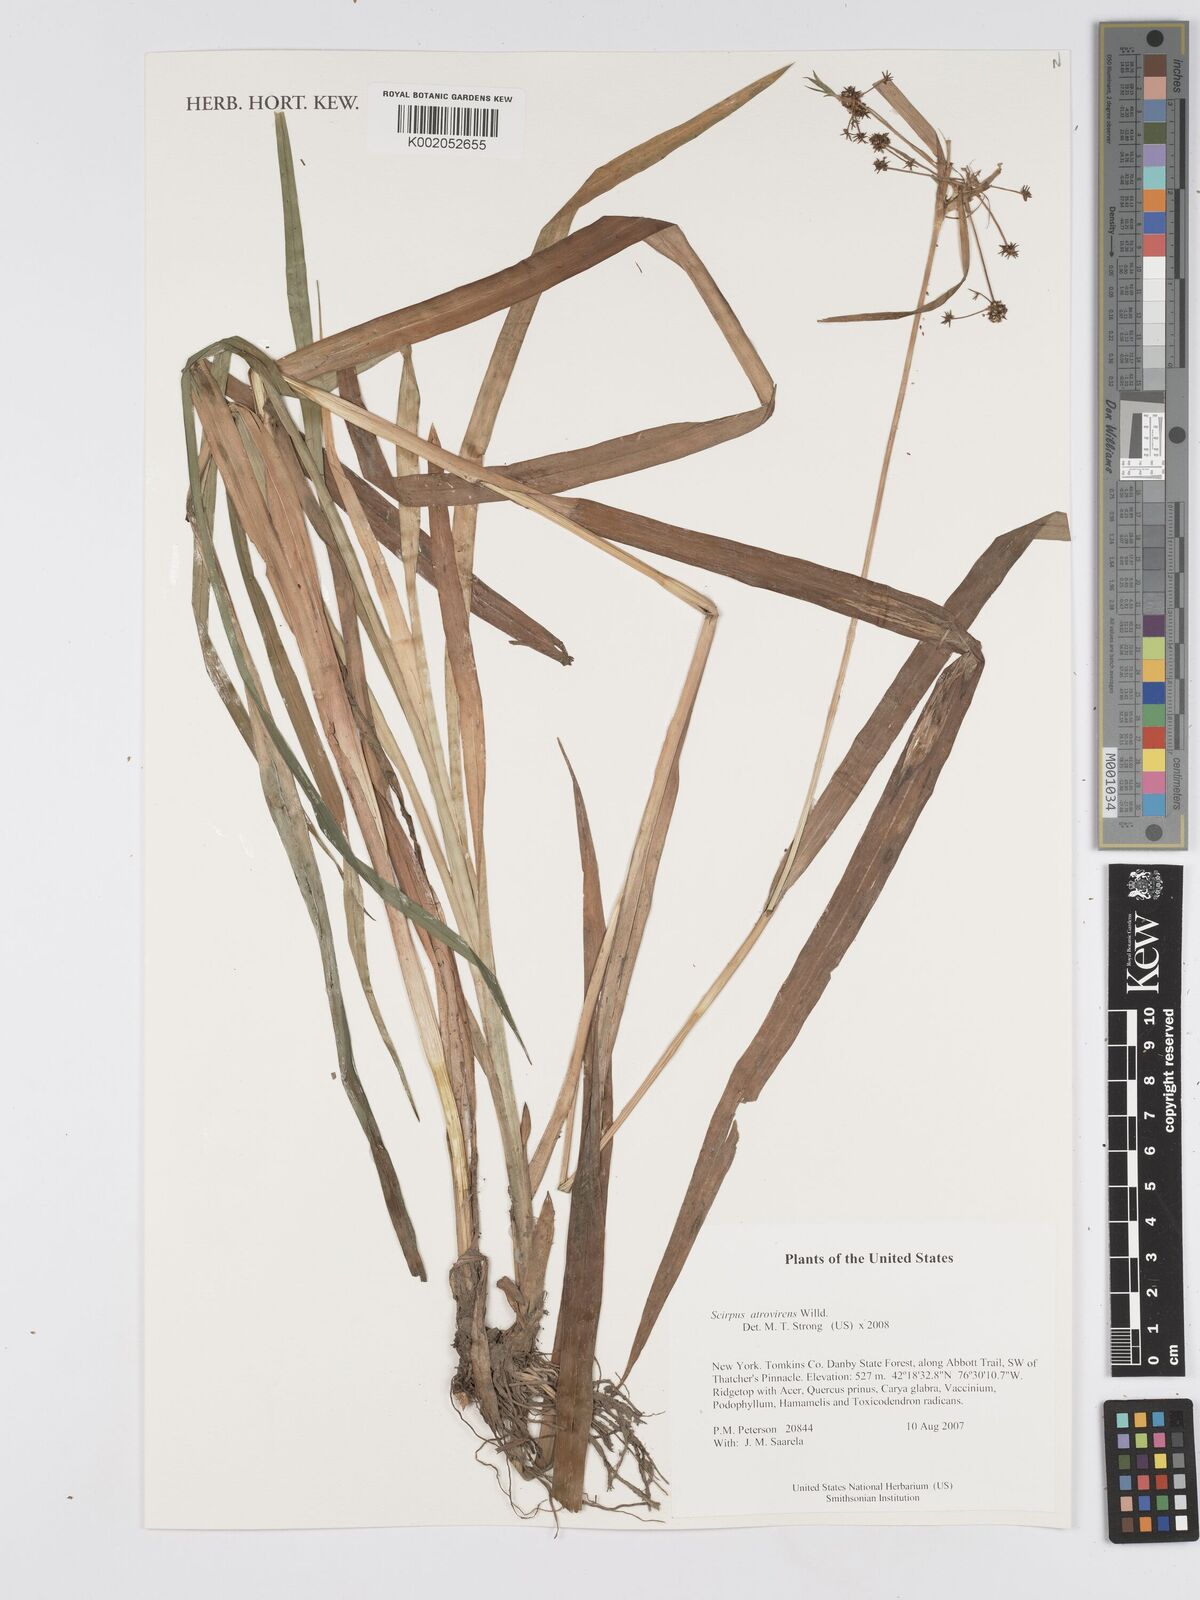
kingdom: Plantae
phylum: Tracheophyta
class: Liliopsida
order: Poales
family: Cyperaceae
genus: Scirpus
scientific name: Scirpus atrovirens
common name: Black bulrush
